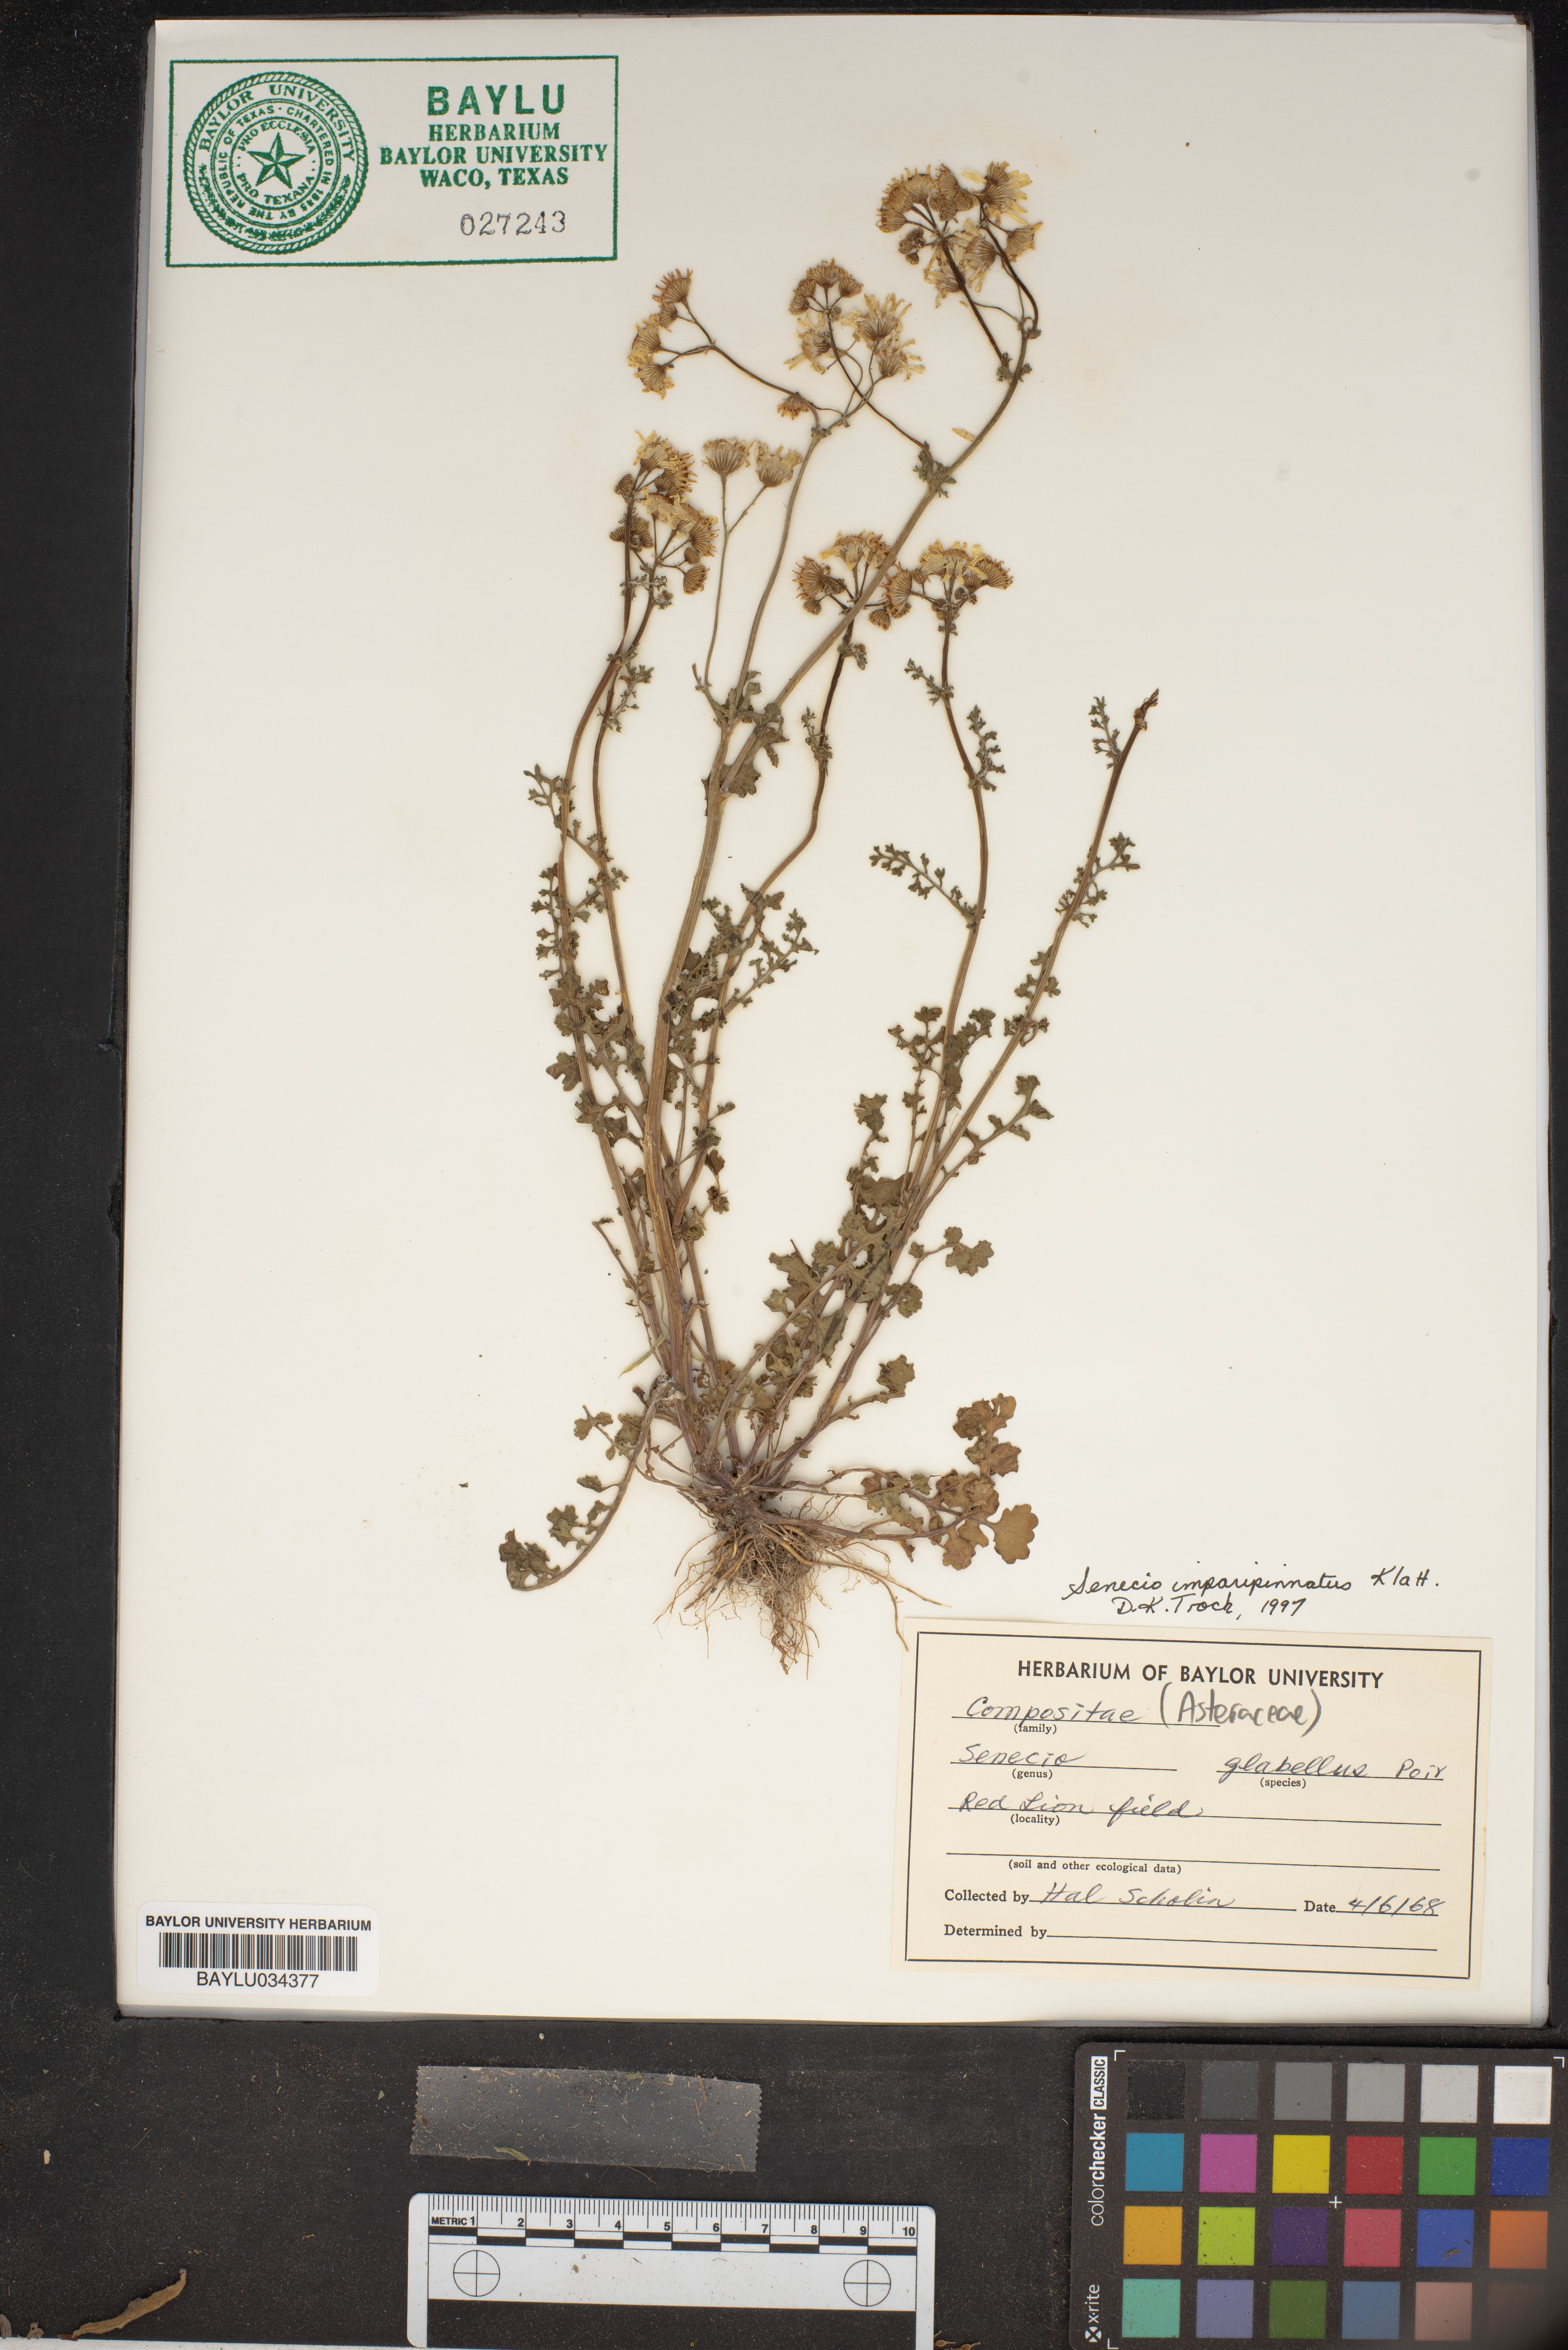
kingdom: Plantae
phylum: Tracheophyta
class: Magnoliopsida
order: Asterales
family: Asteraceae
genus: Tephroseris
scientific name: Tephroseris praticola
